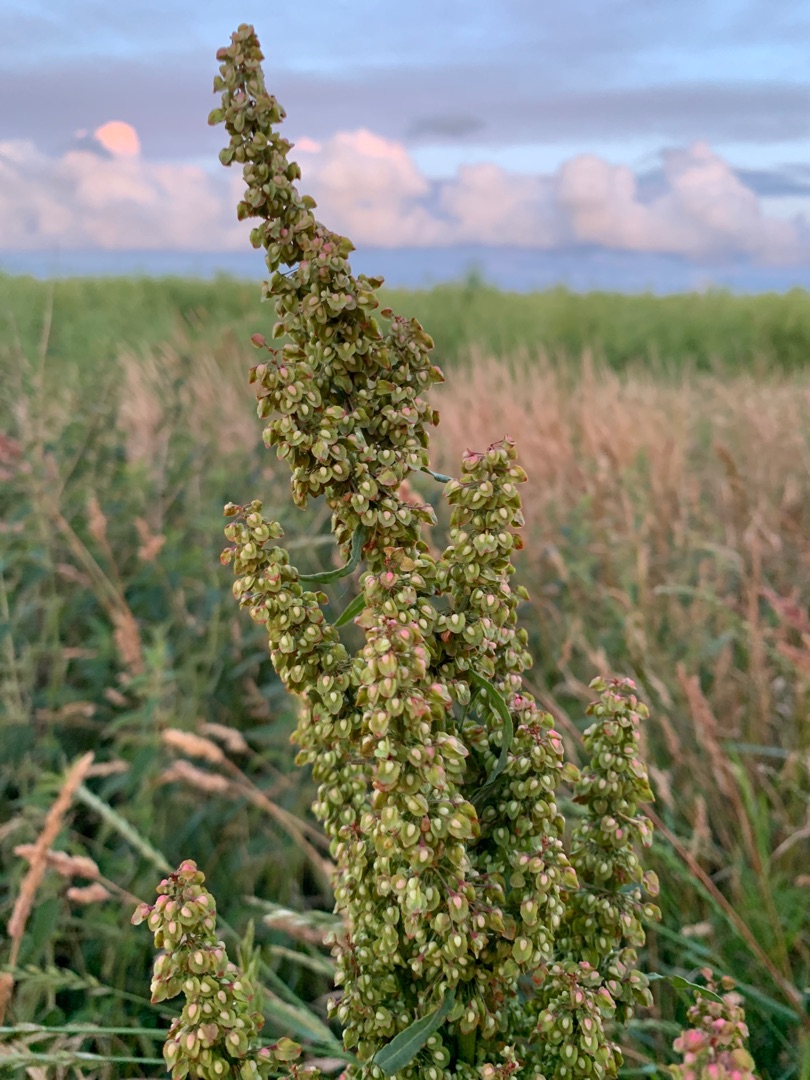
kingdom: Plantae
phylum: Tracheophyta
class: Magnoliopsida
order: Caryophyllales
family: Polygonaceae
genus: Rumex
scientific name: Rumex crispus
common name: Kruset skræppe
